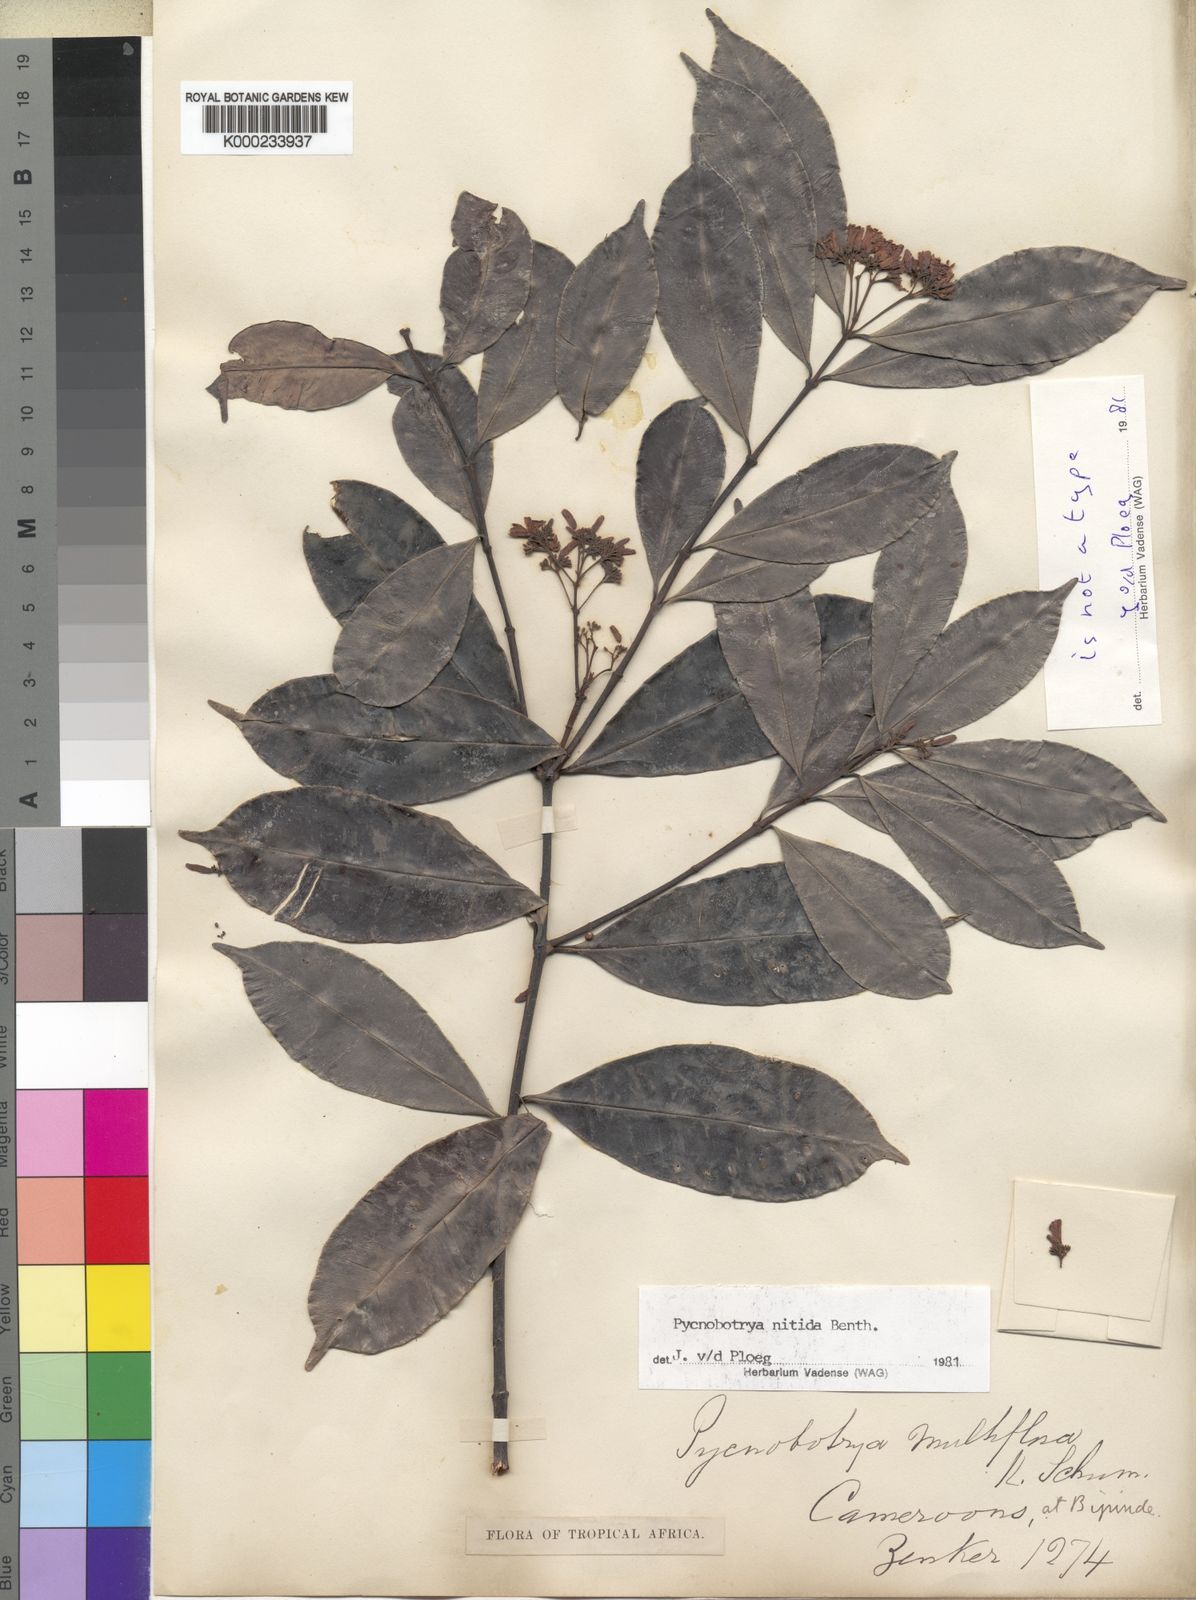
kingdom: Plantae
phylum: Tracheophyta
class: Magnoliopsida
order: Gentianales
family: Apocynaceae
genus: Pycnobotrya
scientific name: Pycnobotrya nitida
